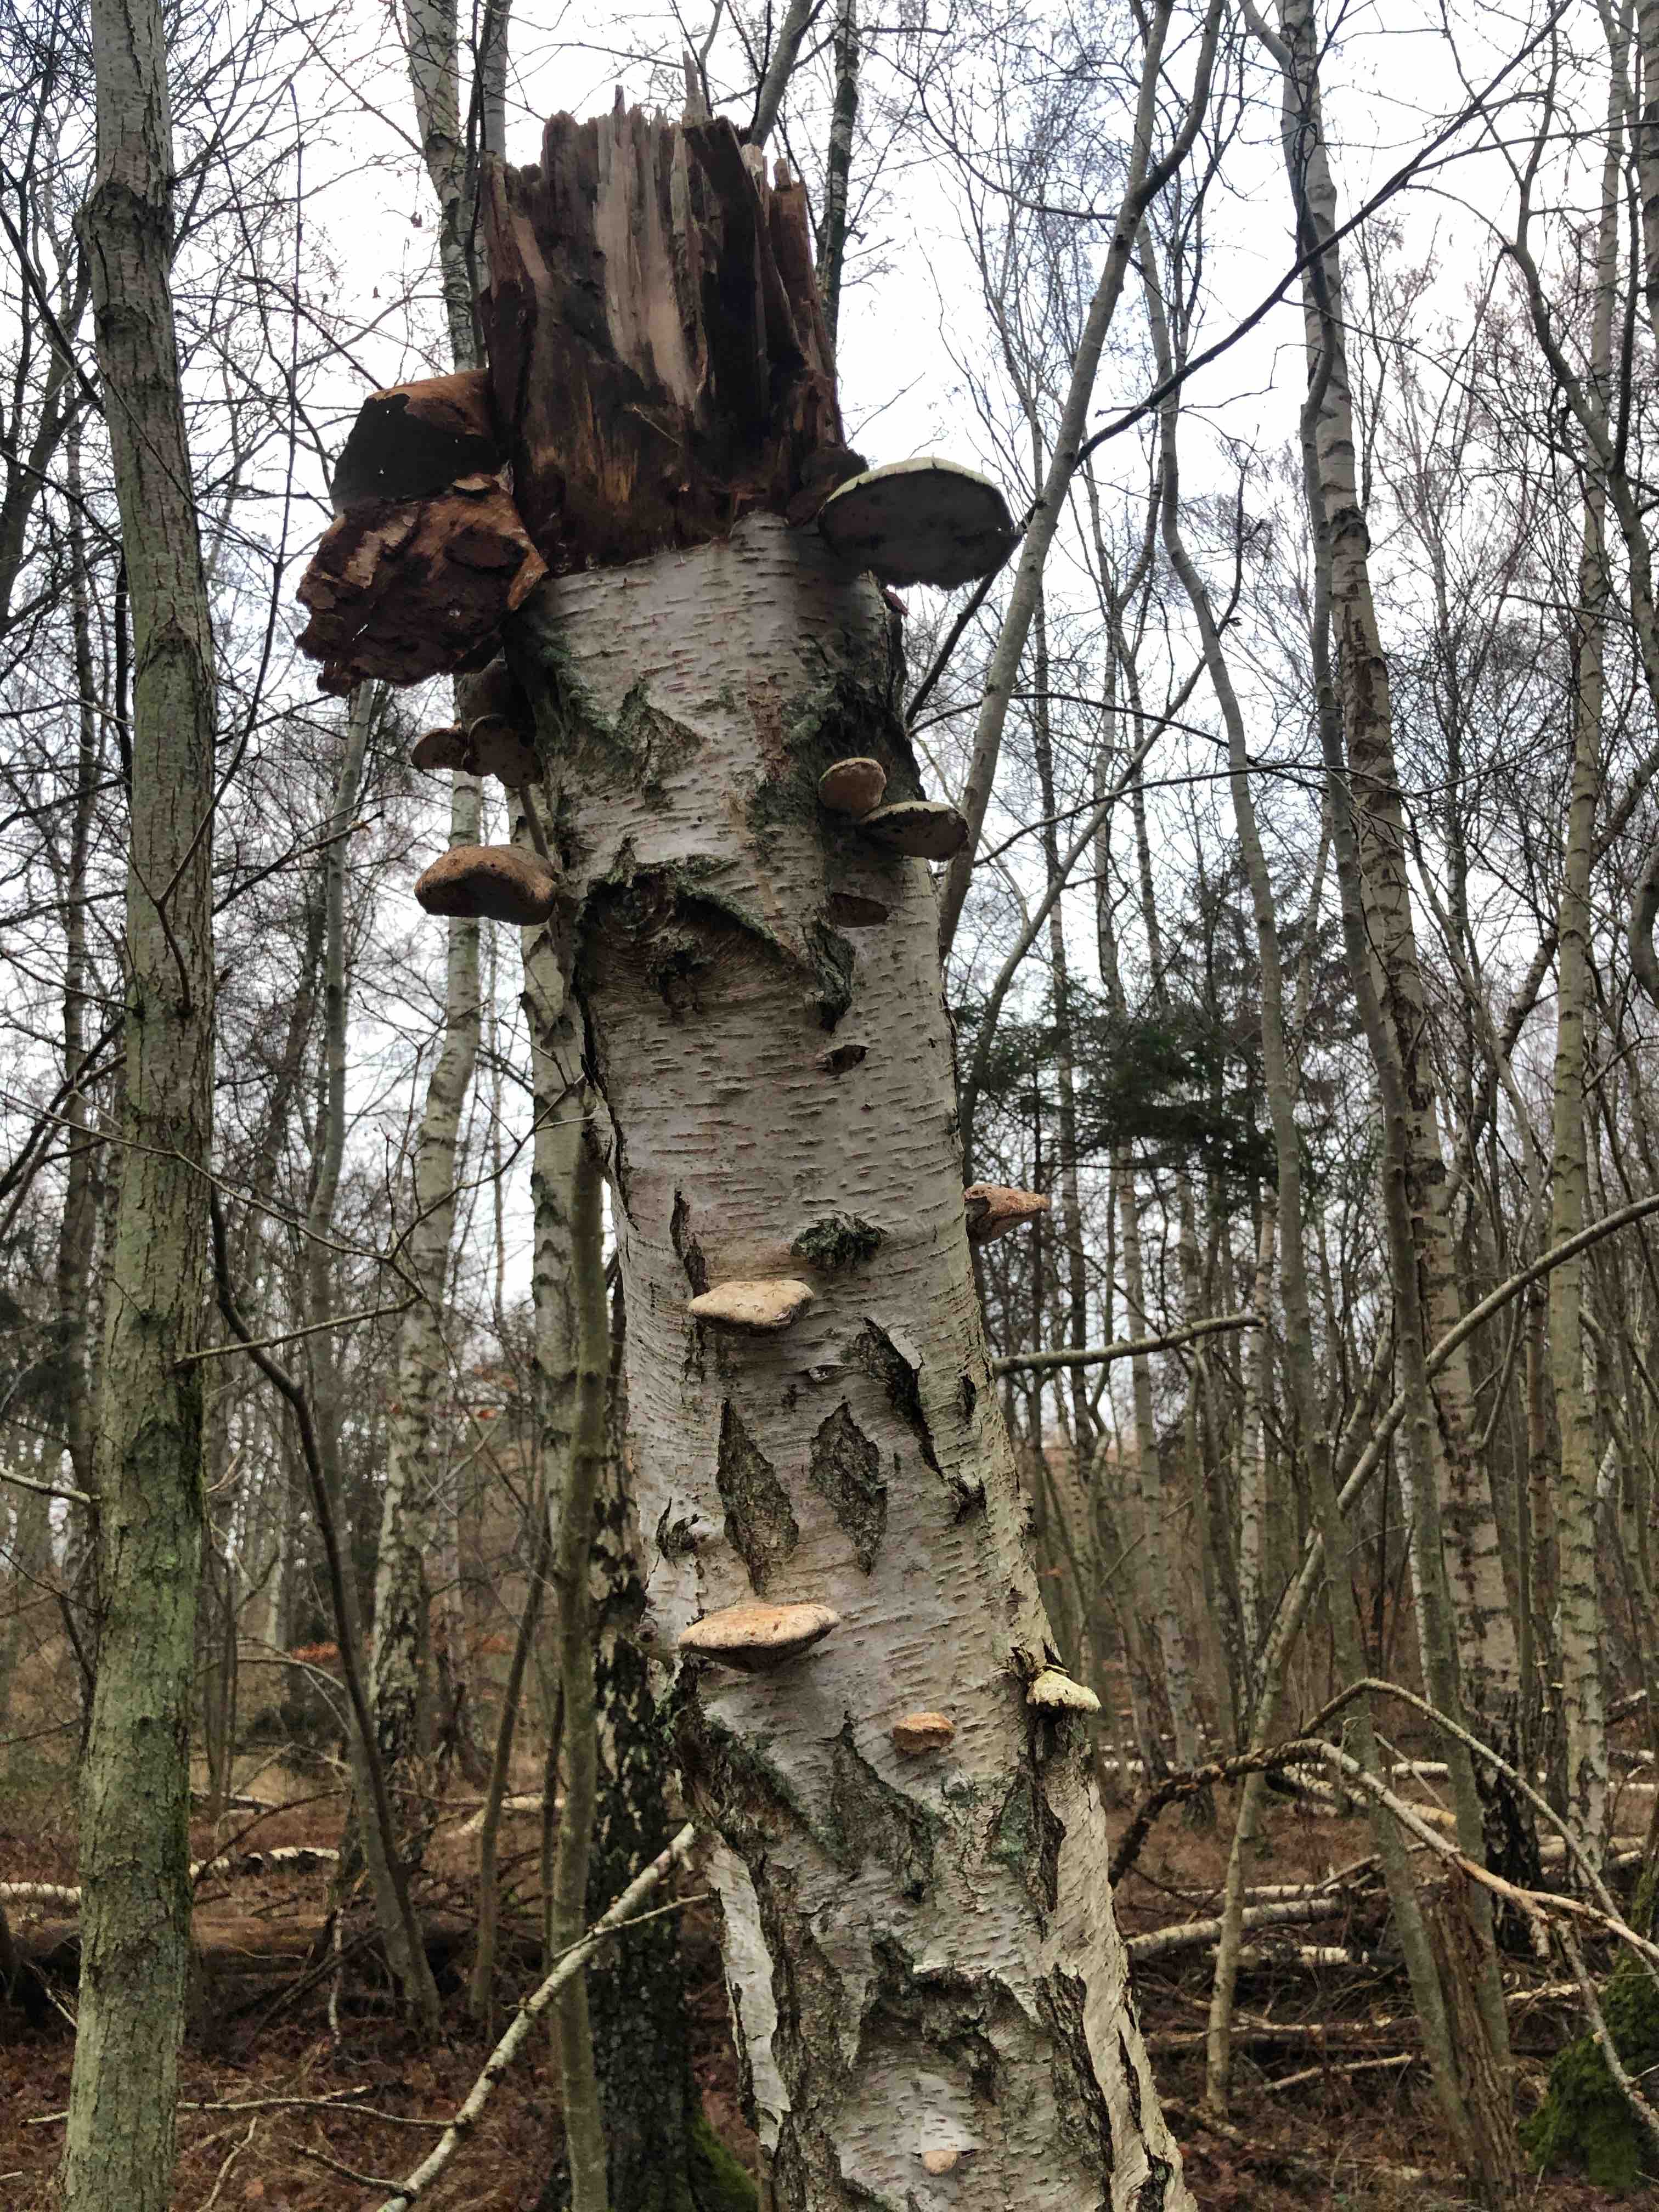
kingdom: Fungi
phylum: Basidiomycota
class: Agaricomycetes
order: Polyporales
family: Fomitopsidaceae
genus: Fomitopsis
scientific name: Fomitopsis betulina
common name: birkeporesvamp
